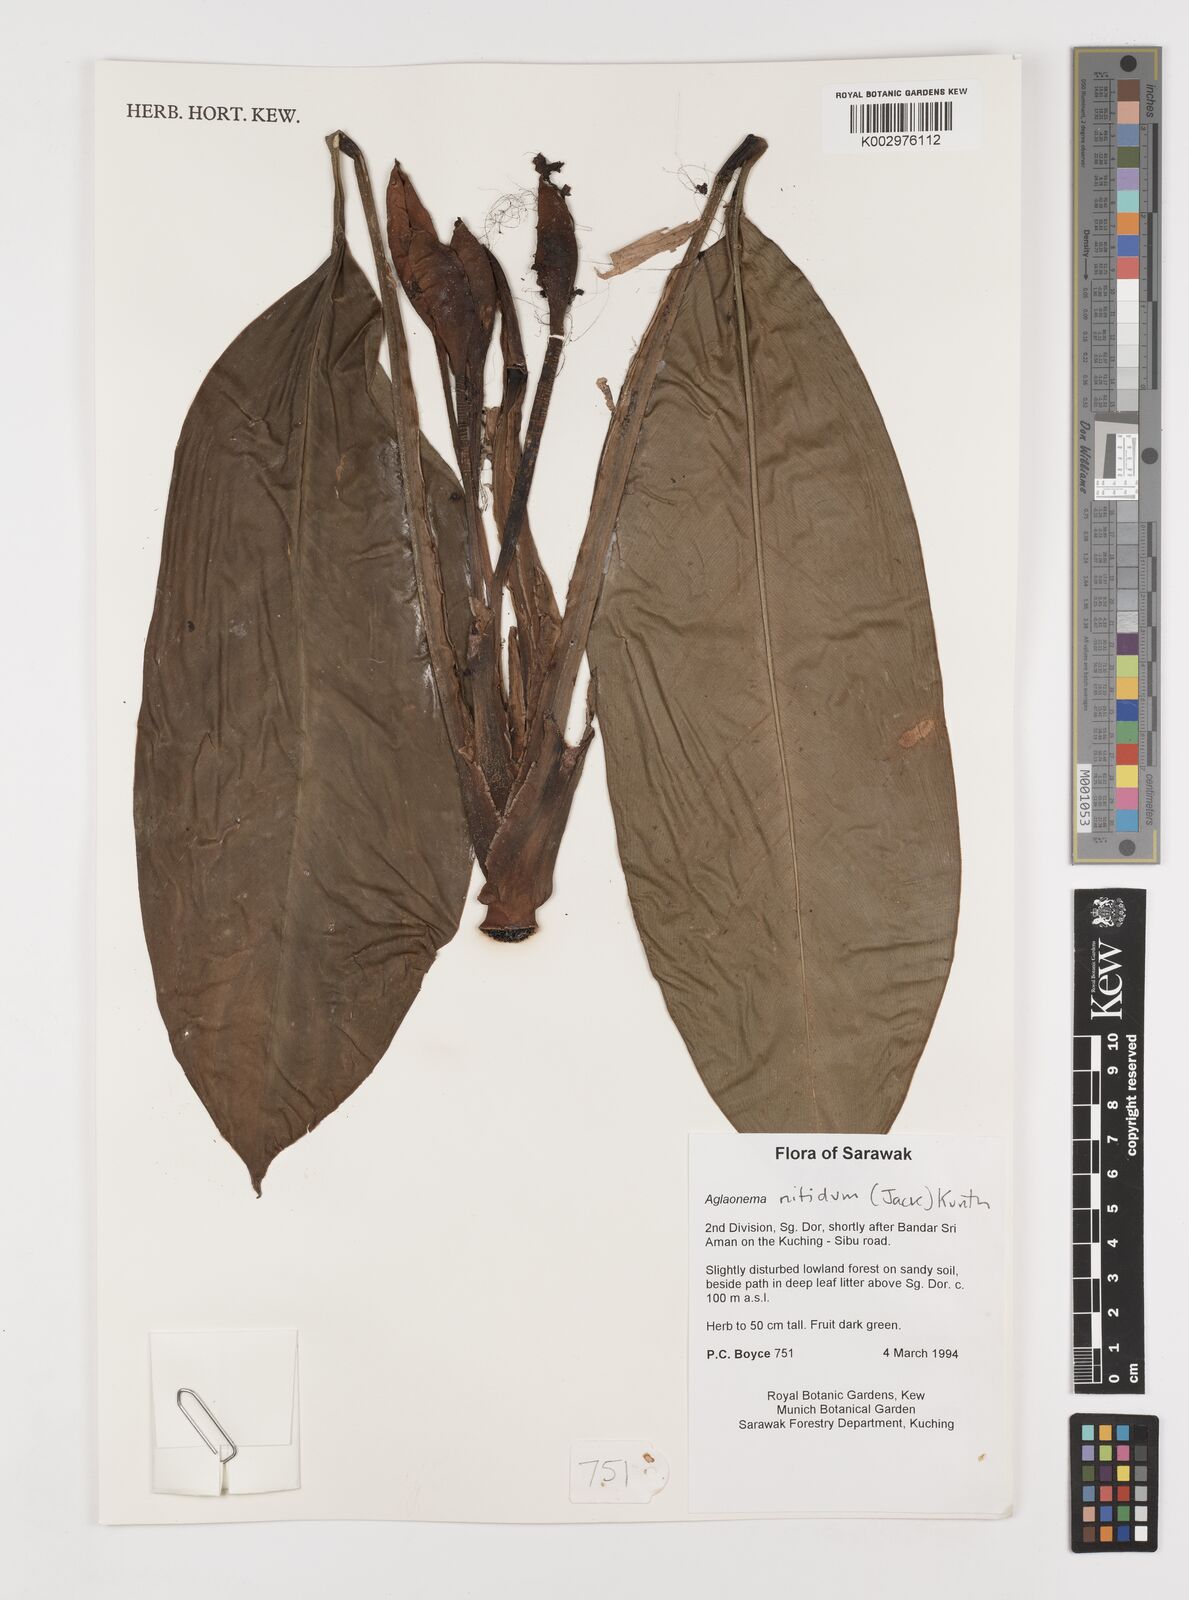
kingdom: Plantae
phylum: Tracheophyta
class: Liliopsida
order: Alismatales
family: Araceae
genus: Aglaonema
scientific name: Aglaonema nitidum
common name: Aglaonema aroid
